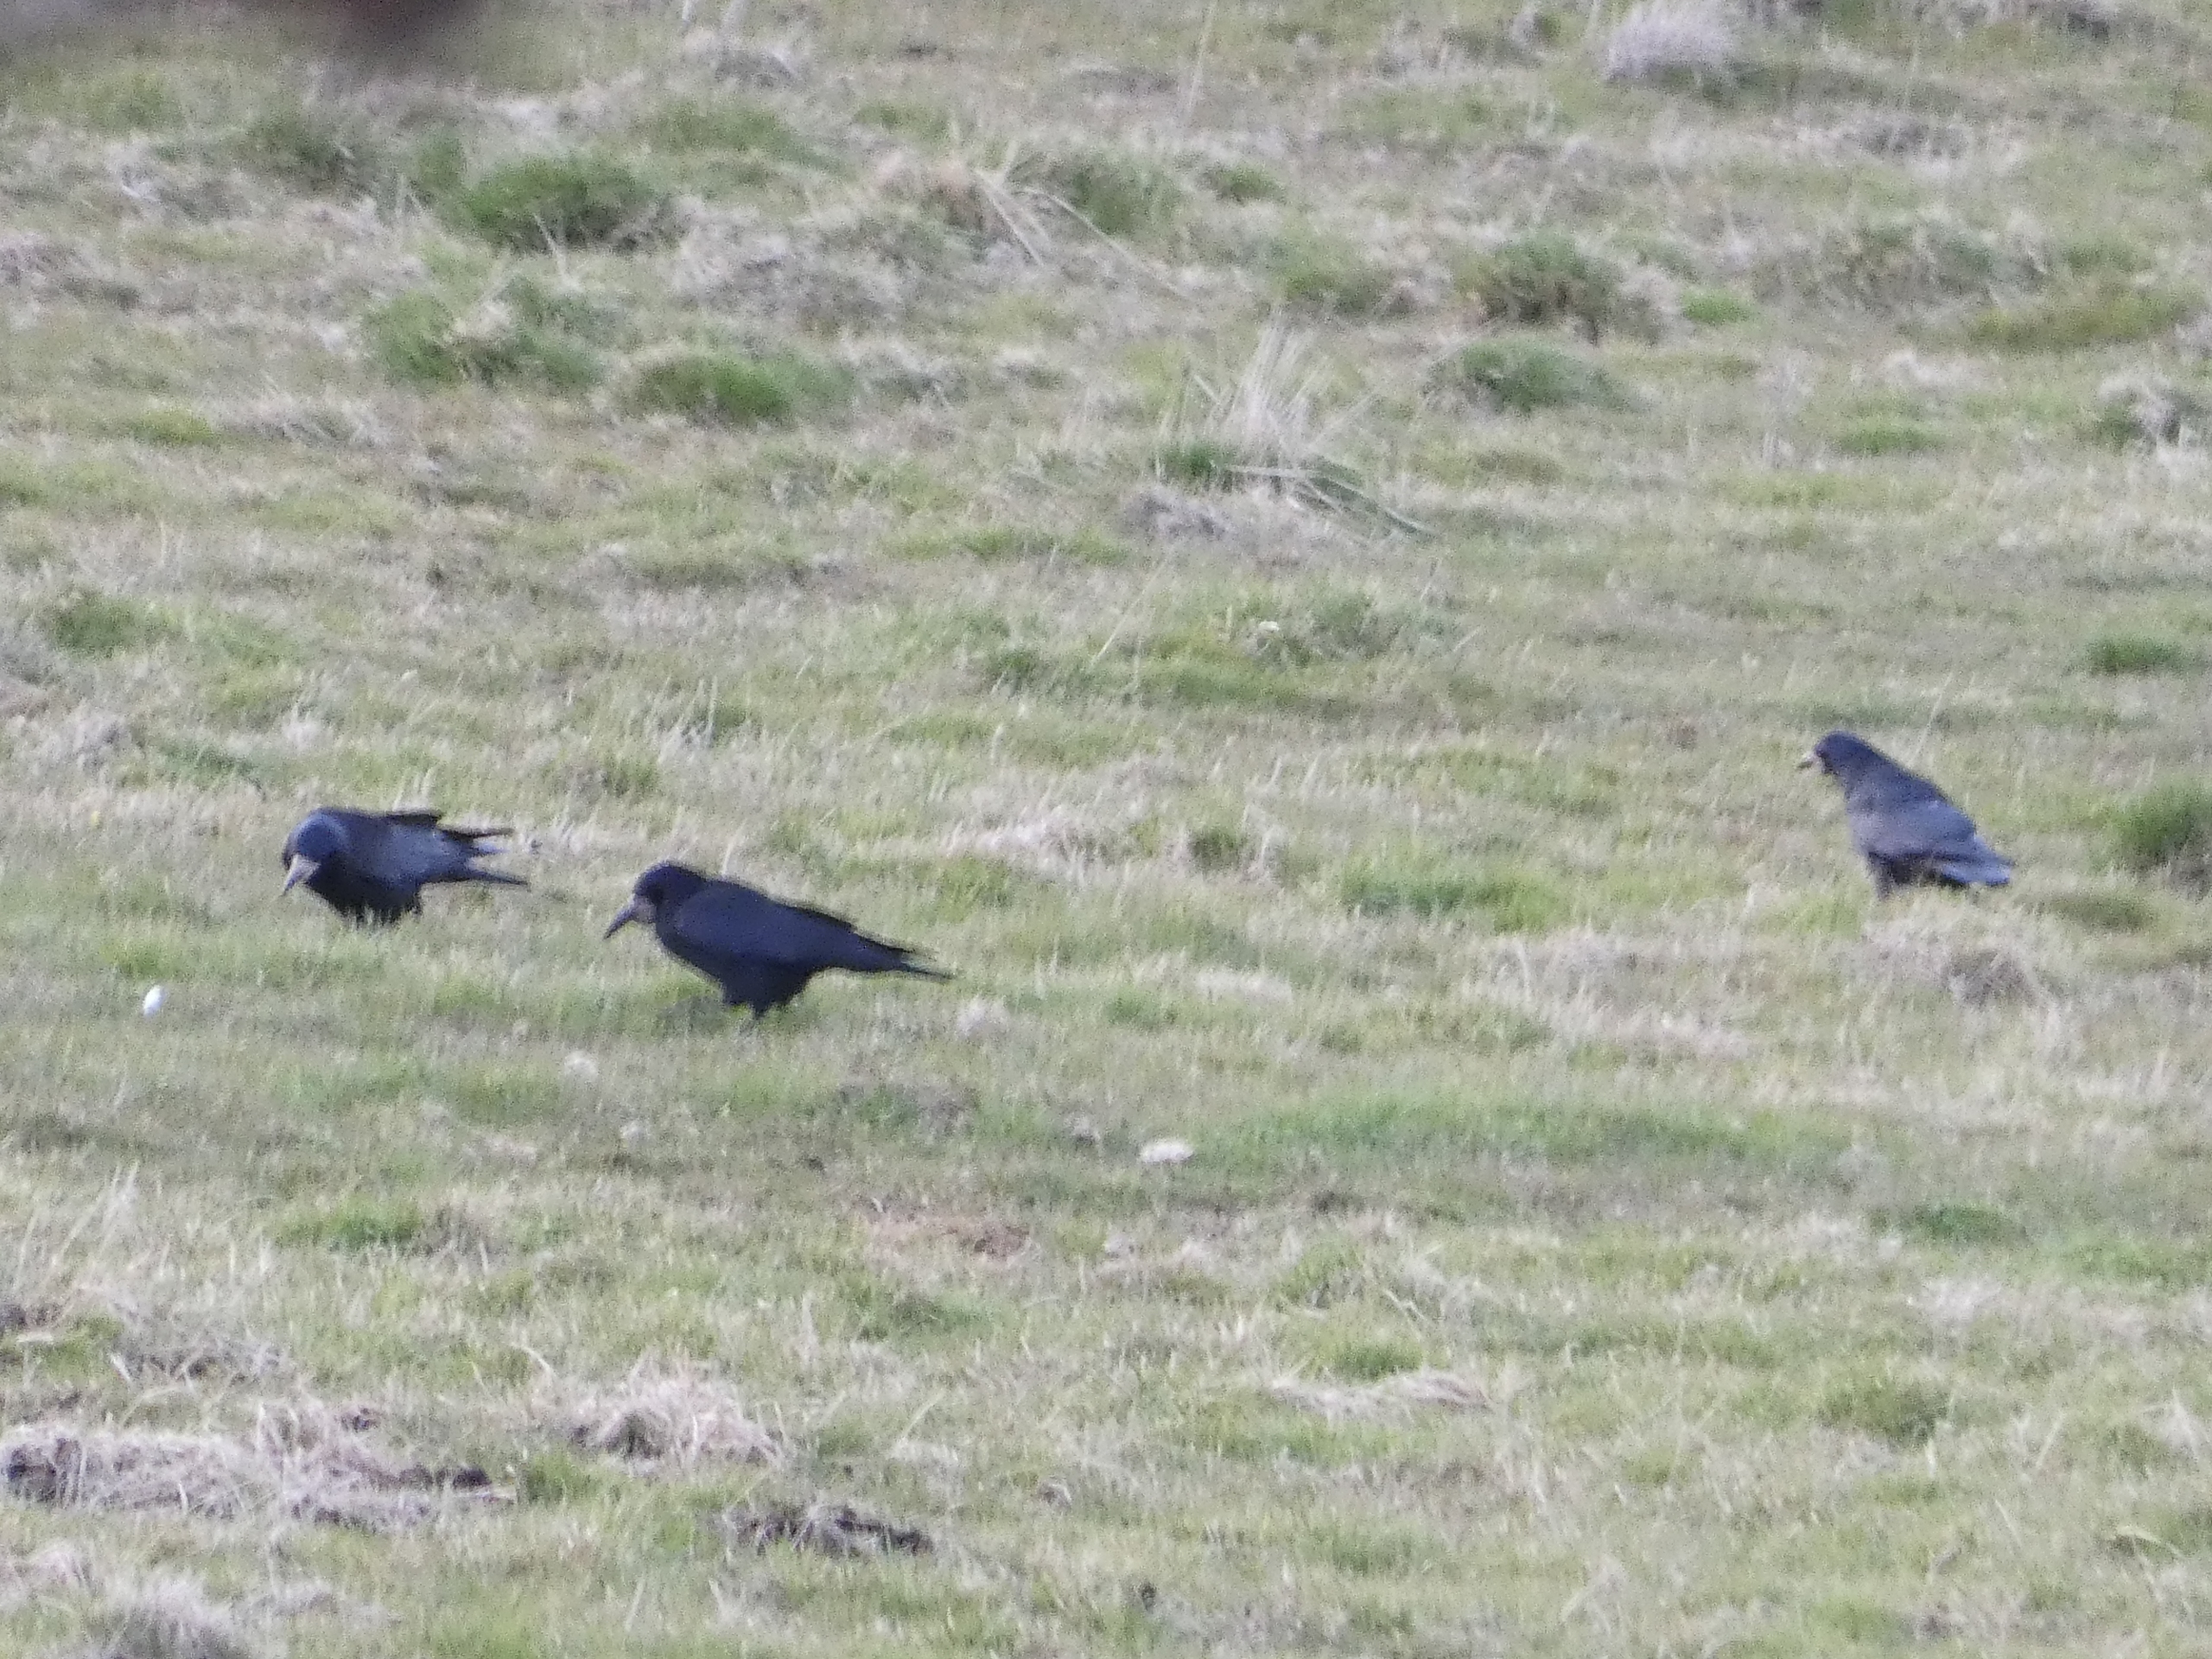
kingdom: Animalia
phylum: Chordata
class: Aves
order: Passeriformes
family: Corvidae
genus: Corvus
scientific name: Corvus frugilegus
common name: Råge
